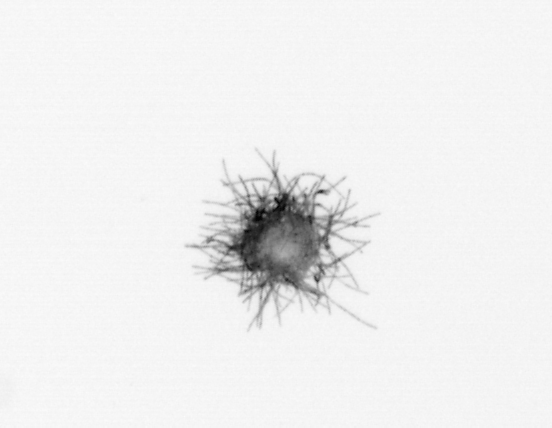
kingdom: Bacteria
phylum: Cyanobacteria
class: Cyanobacteriia
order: Cyanobacteriales
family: Microcoleaceae
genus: Trichodesmium
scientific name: Trichodesmium
